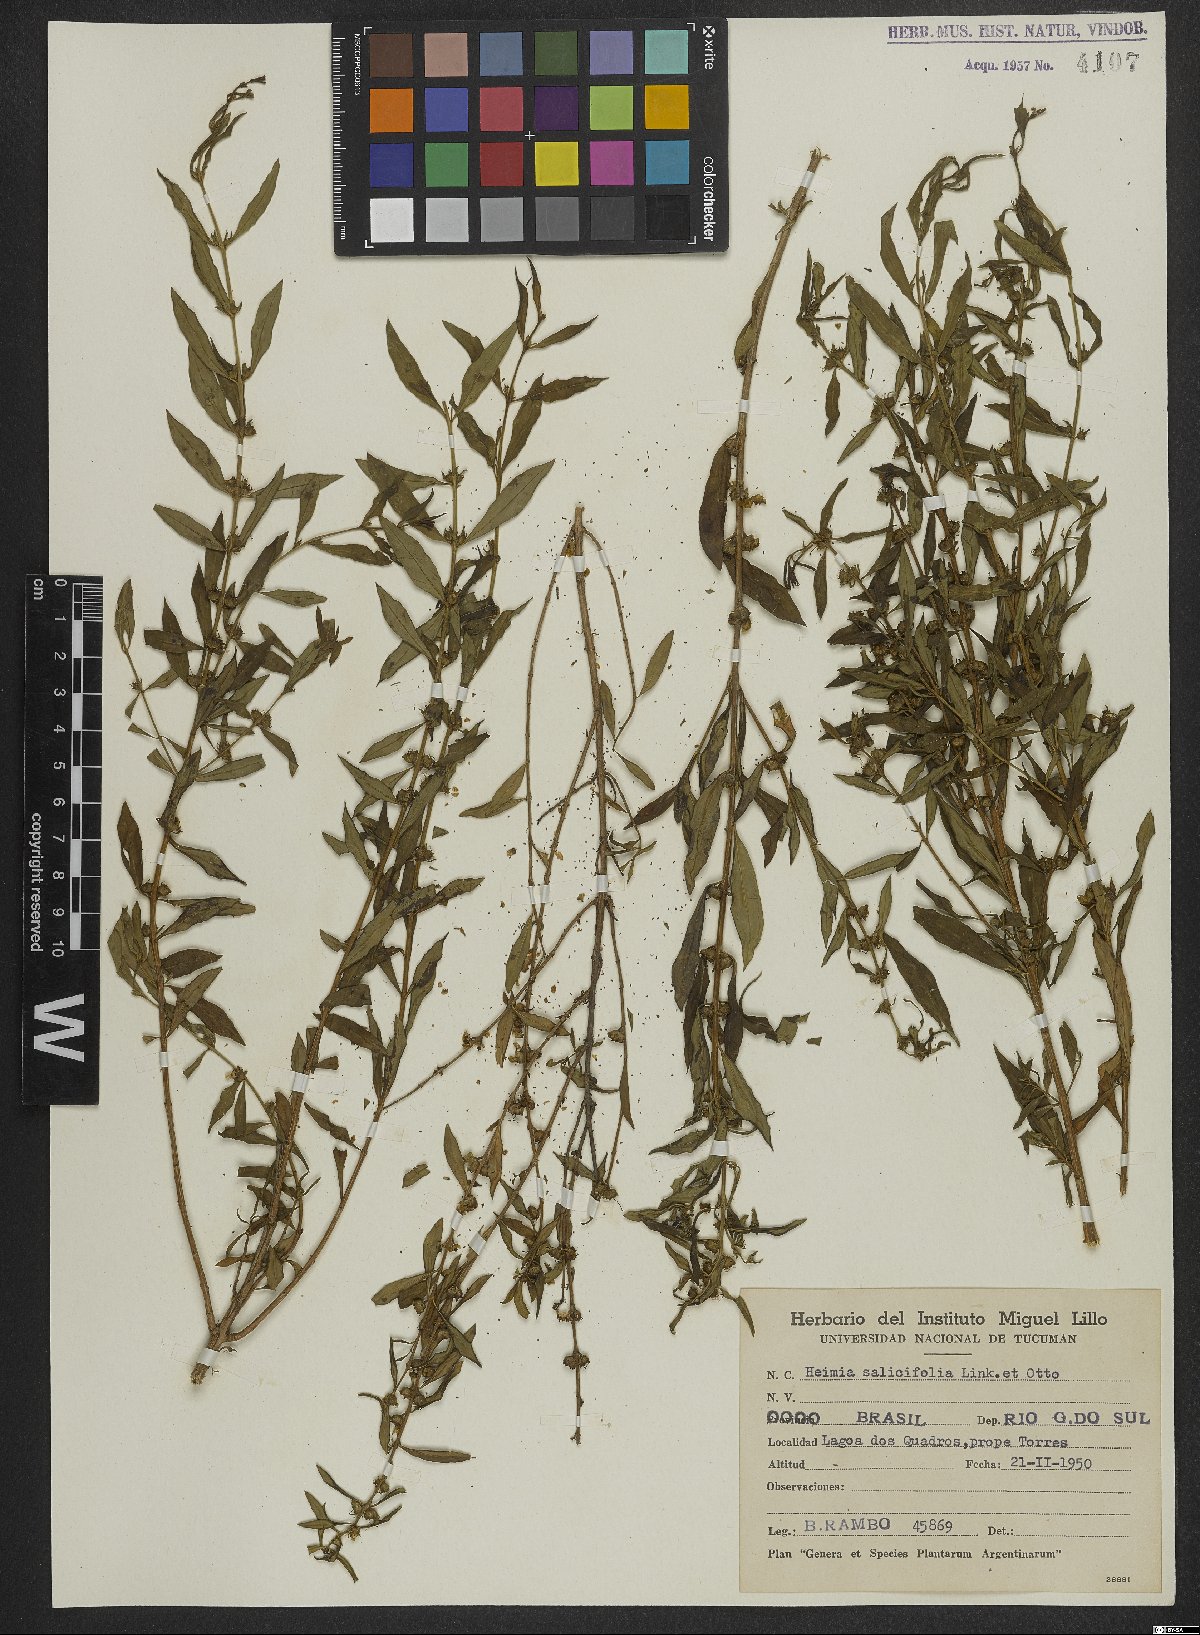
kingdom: Plantae
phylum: Tracheophyta
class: Magnoliopsida
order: Myrtales
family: Lythraceae
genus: Heimia
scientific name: Heimia salicifolia
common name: Willow-leaf heimia
